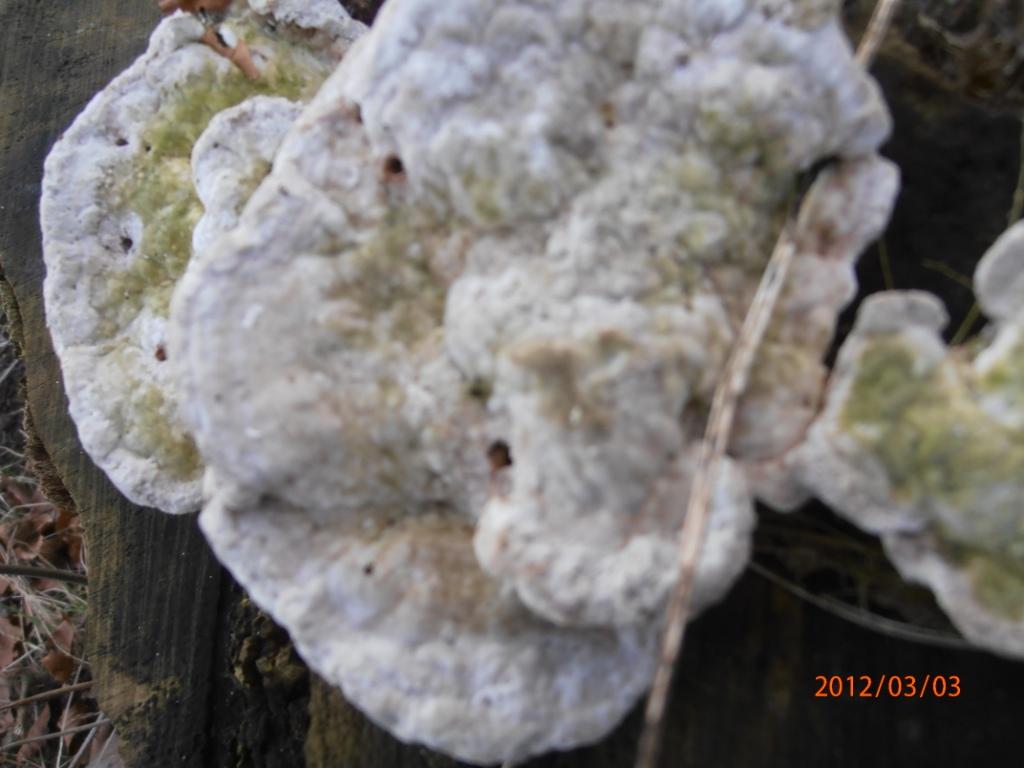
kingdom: Fungi
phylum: Basidiomycota
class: Agaricomycetes
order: Polyporales
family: Polyporaceae
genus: Trametes
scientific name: Trametes hirsuta
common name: håret læderporesvamp
